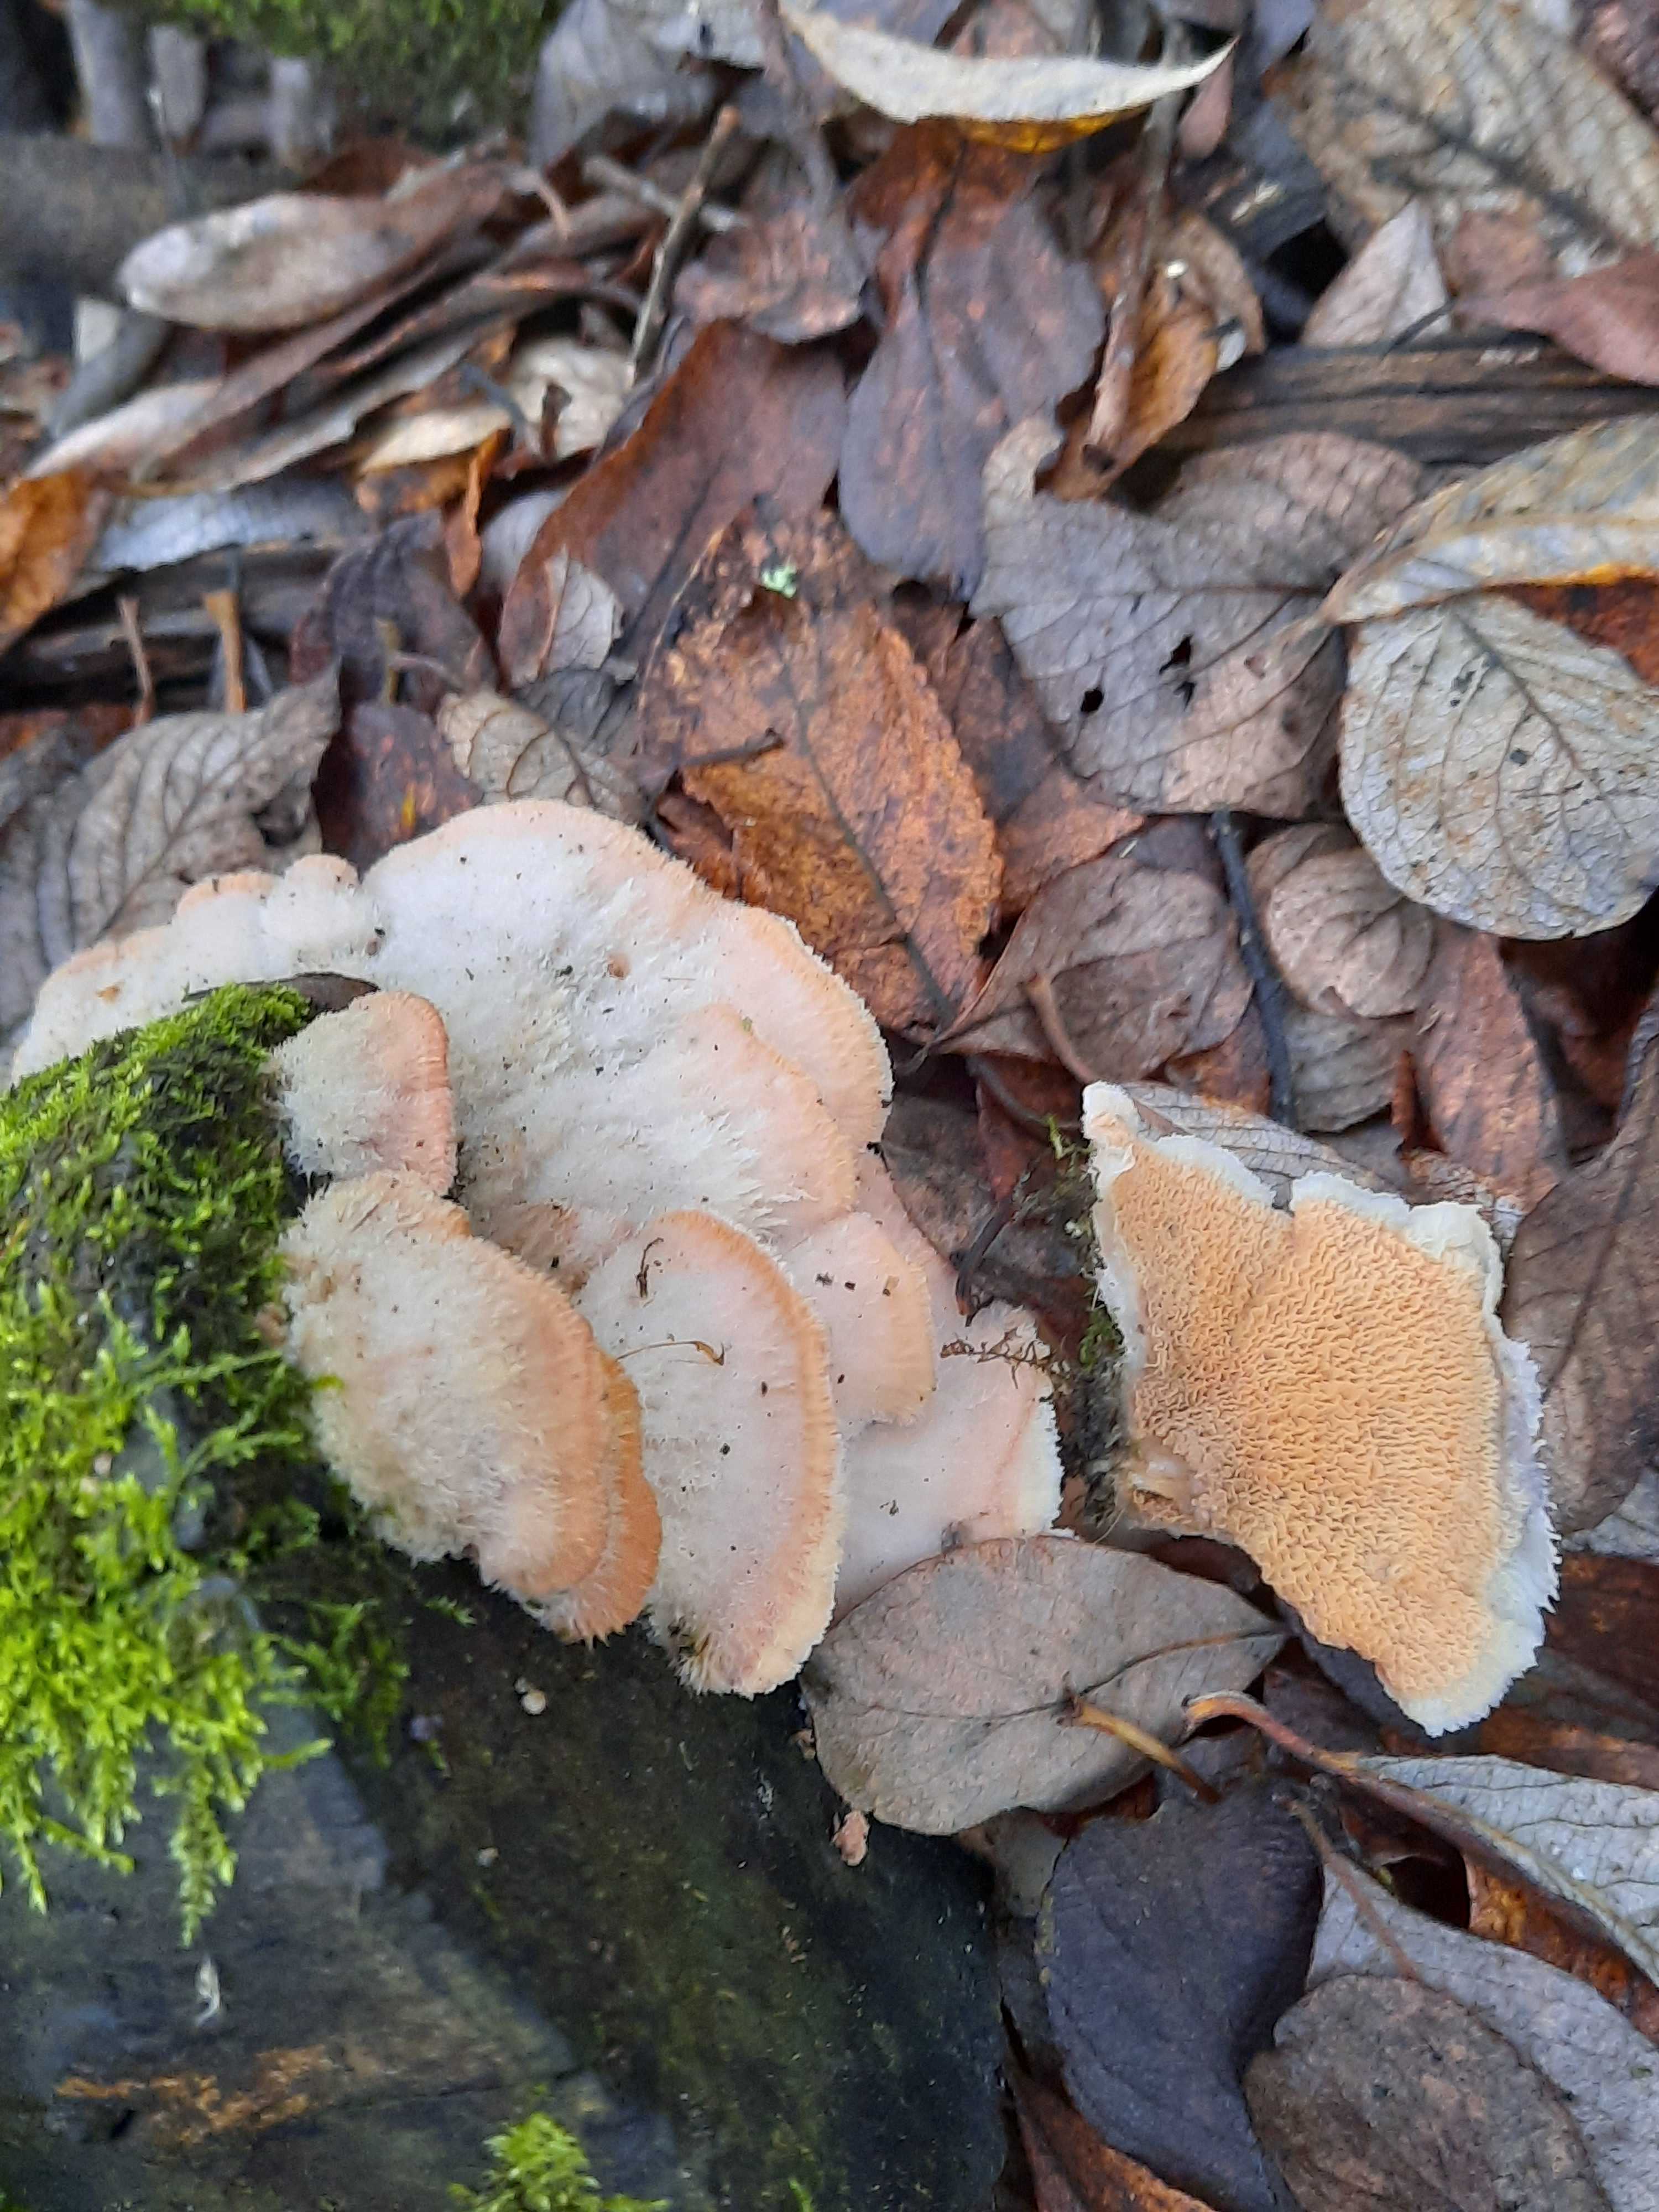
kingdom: Fungi
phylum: Basidiomycota
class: Agaricomycetes
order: Polyporales
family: Meruliaceae
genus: Phlebia
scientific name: Phlebia tremellosa
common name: bævrende åresvamp
